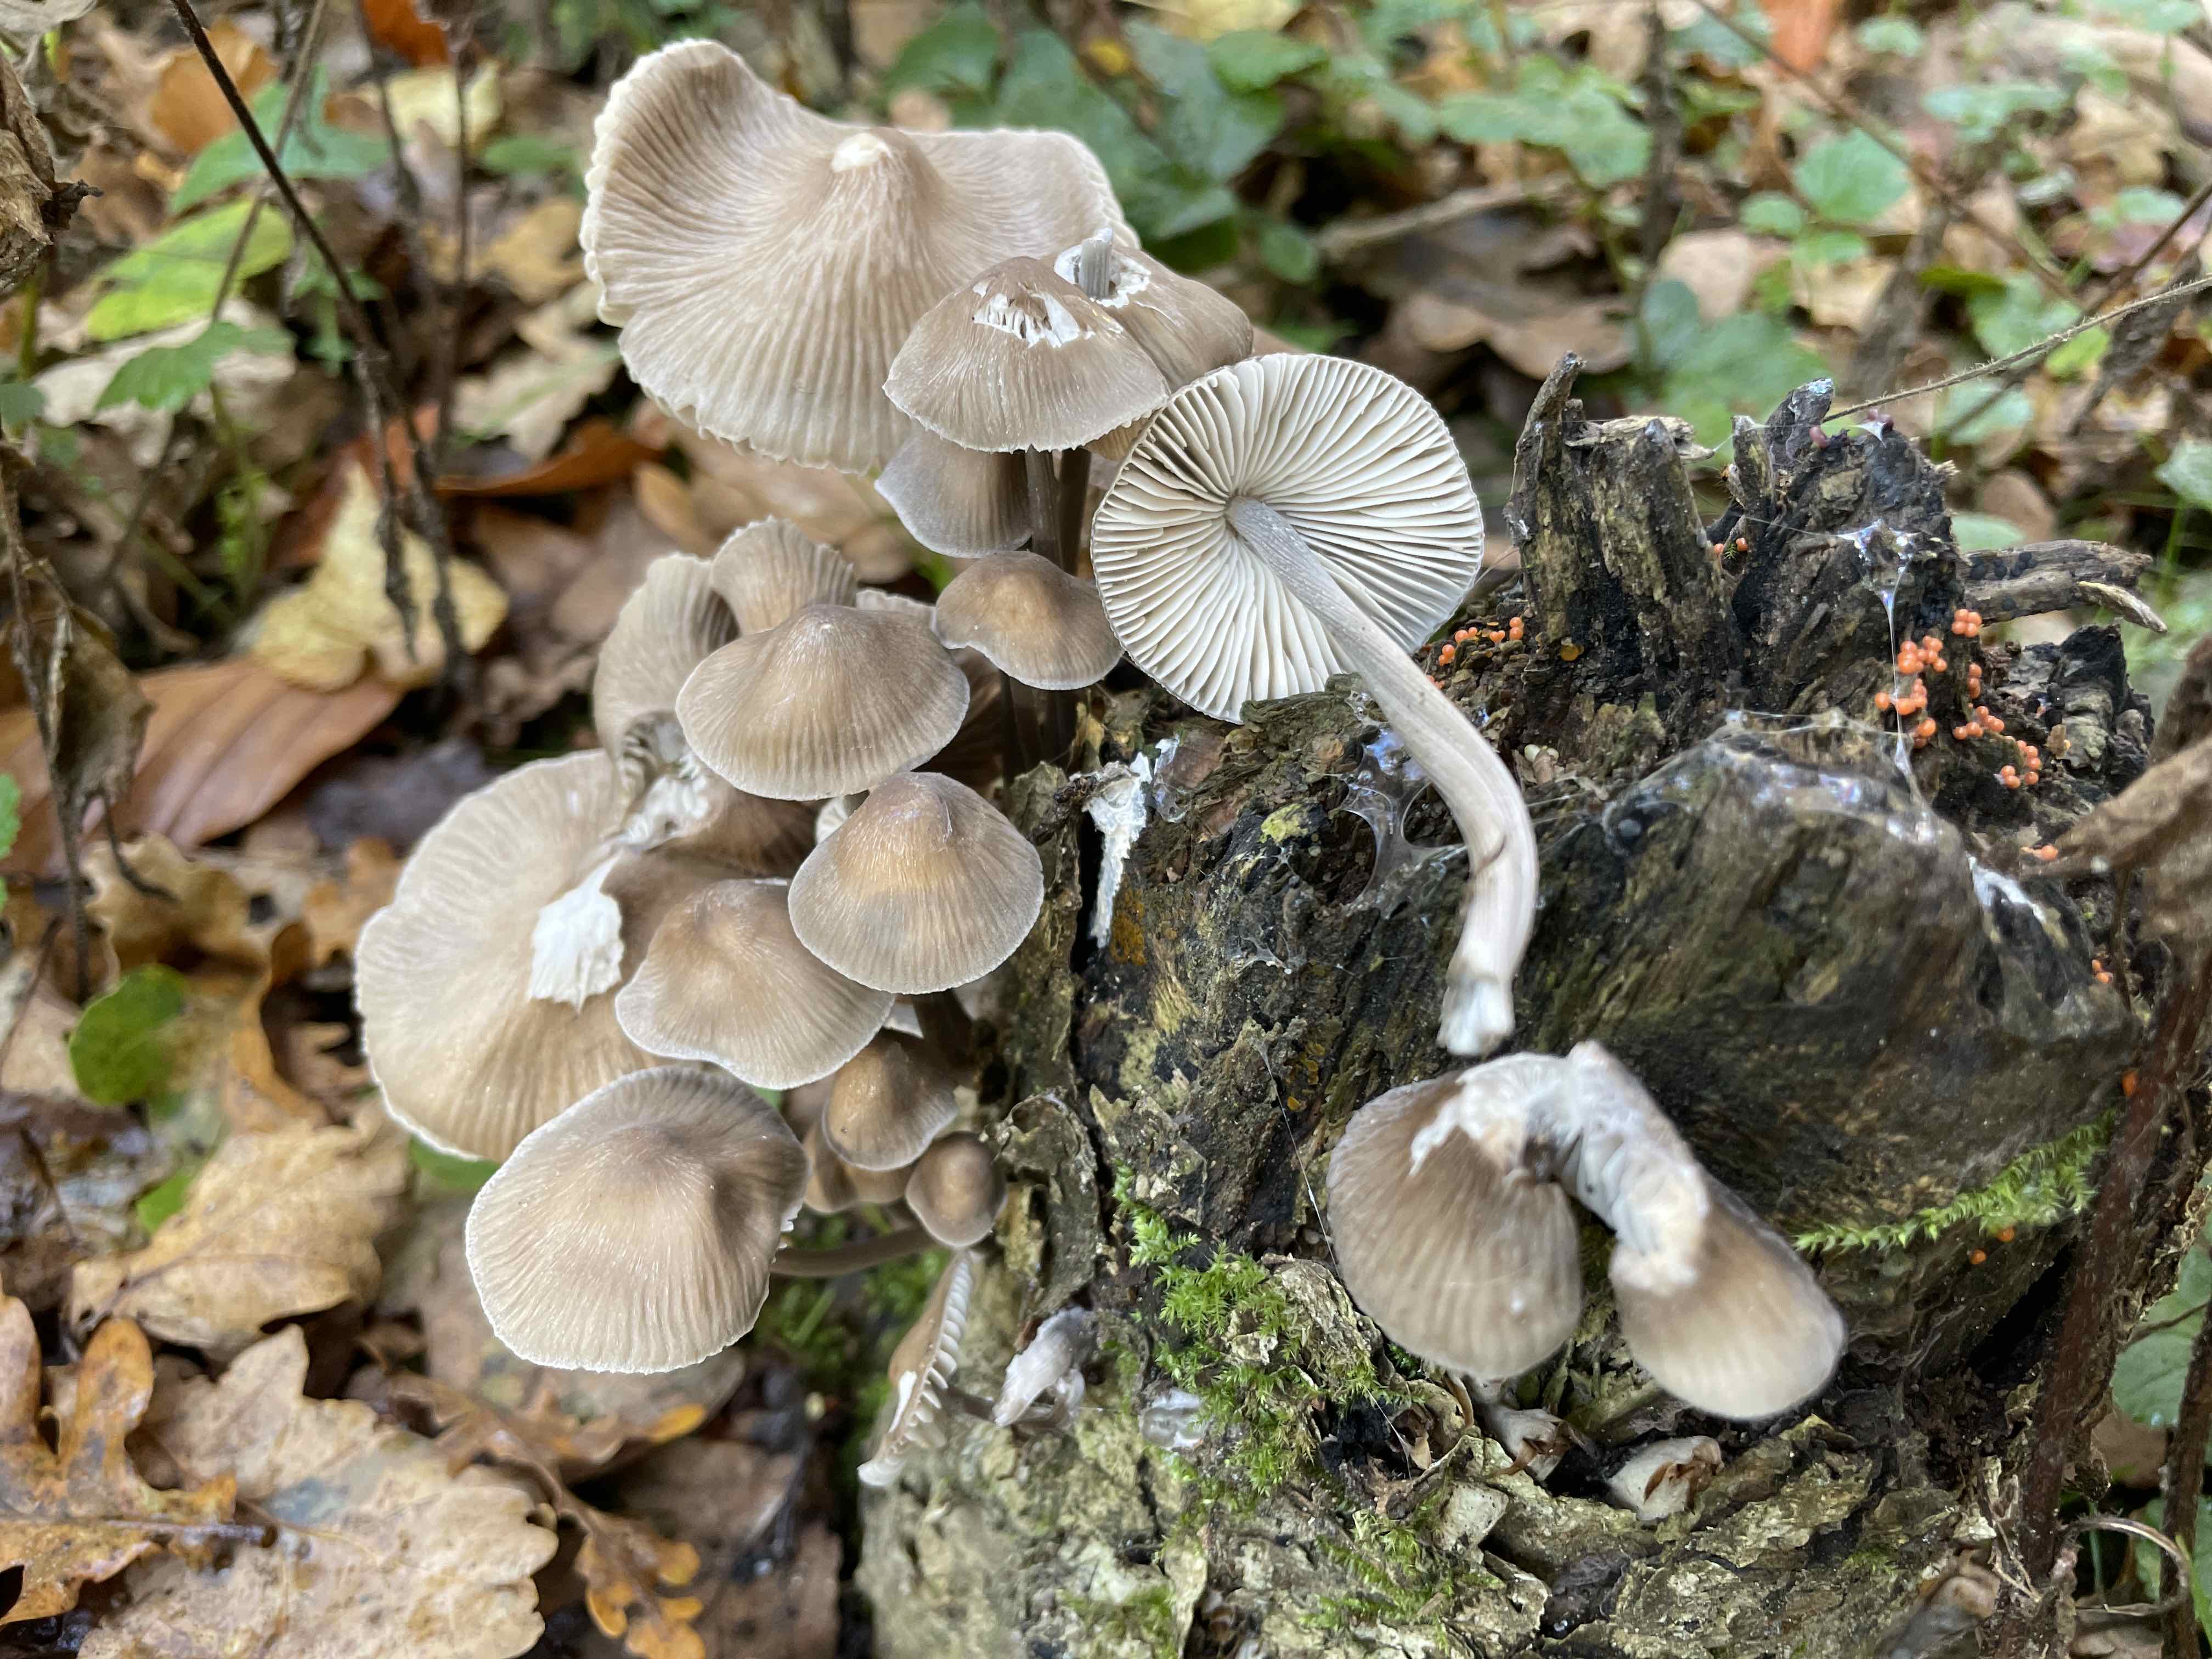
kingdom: Fungi
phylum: Basidiomycota
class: Agaricomycetes
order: Agaricales
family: Mycenaceae
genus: Mycena
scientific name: Mycena galericulata
